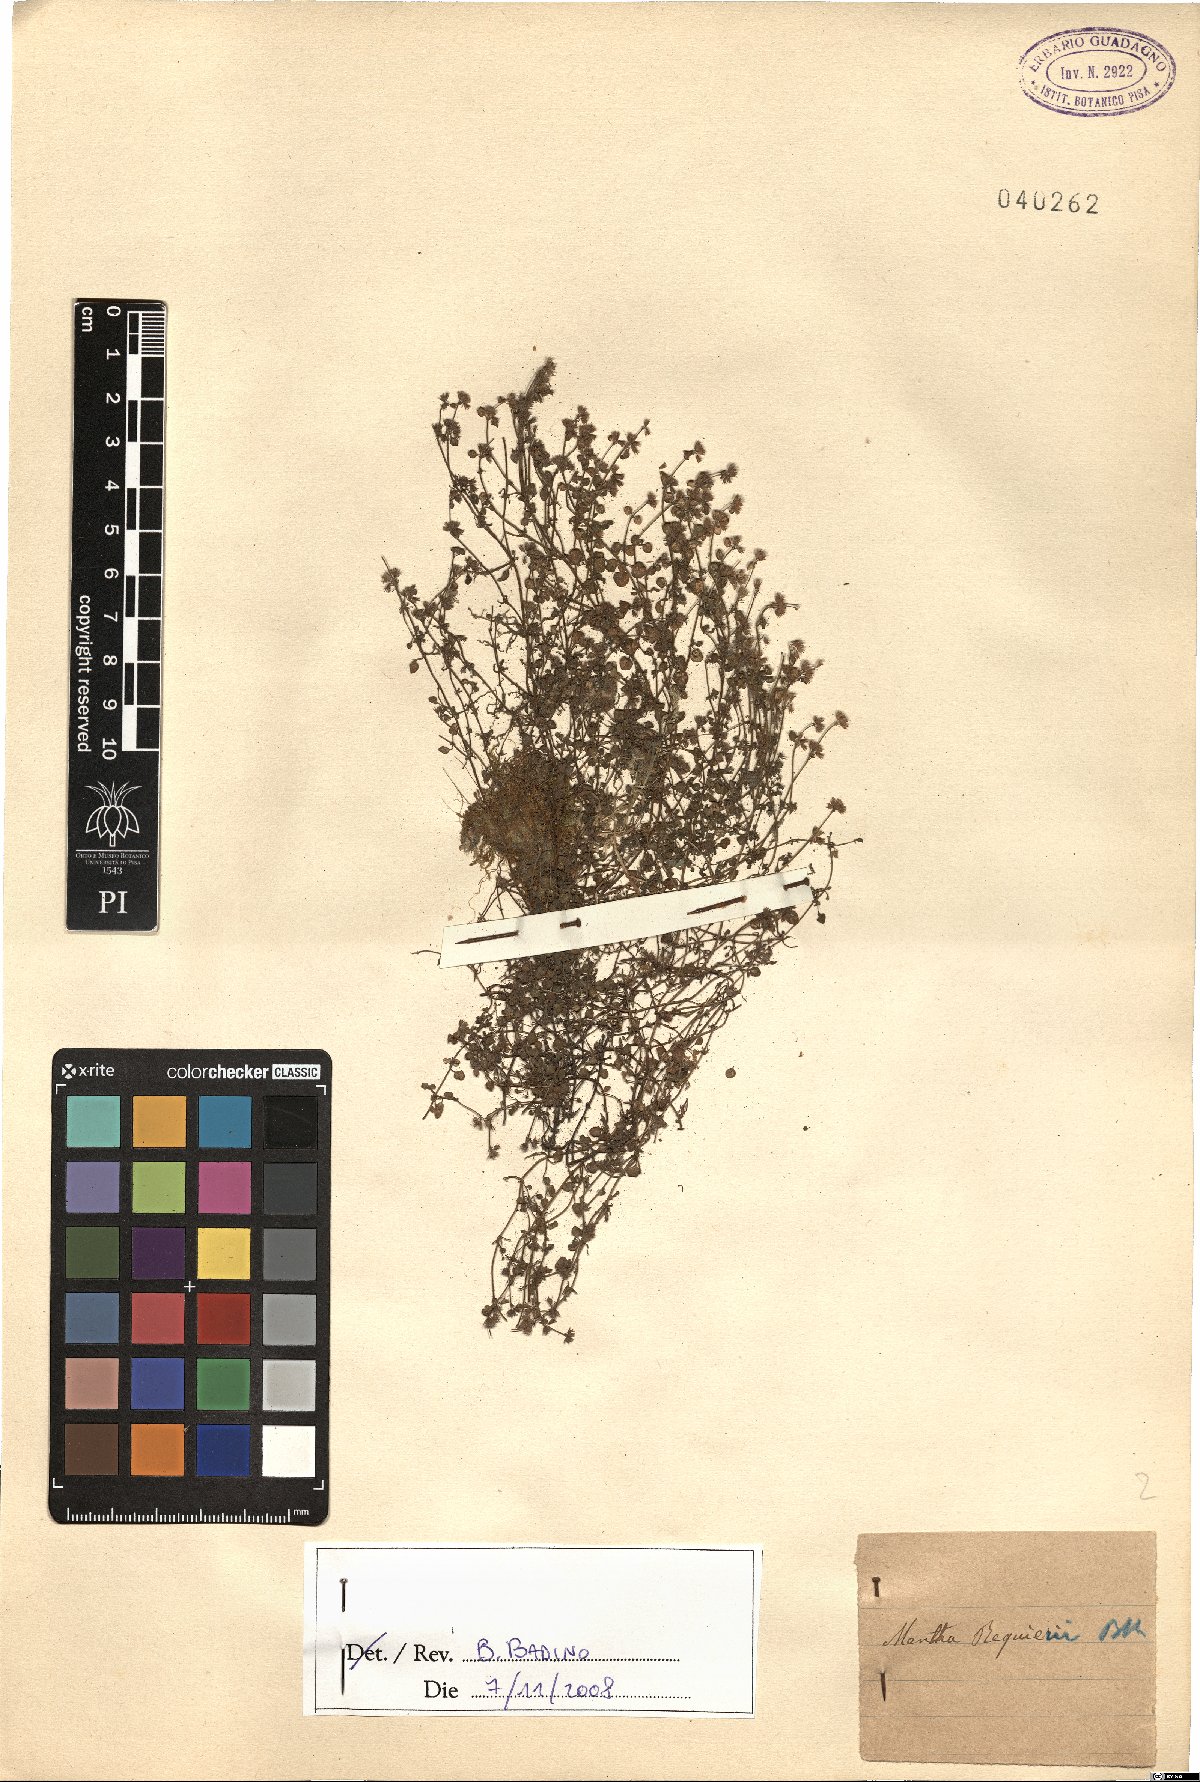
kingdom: Plantae
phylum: Tracheophyta
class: Magnoliopsida
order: Lamiales
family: Lamiaceae
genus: Mentha
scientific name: Mentha requienii
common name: Corsican mint
